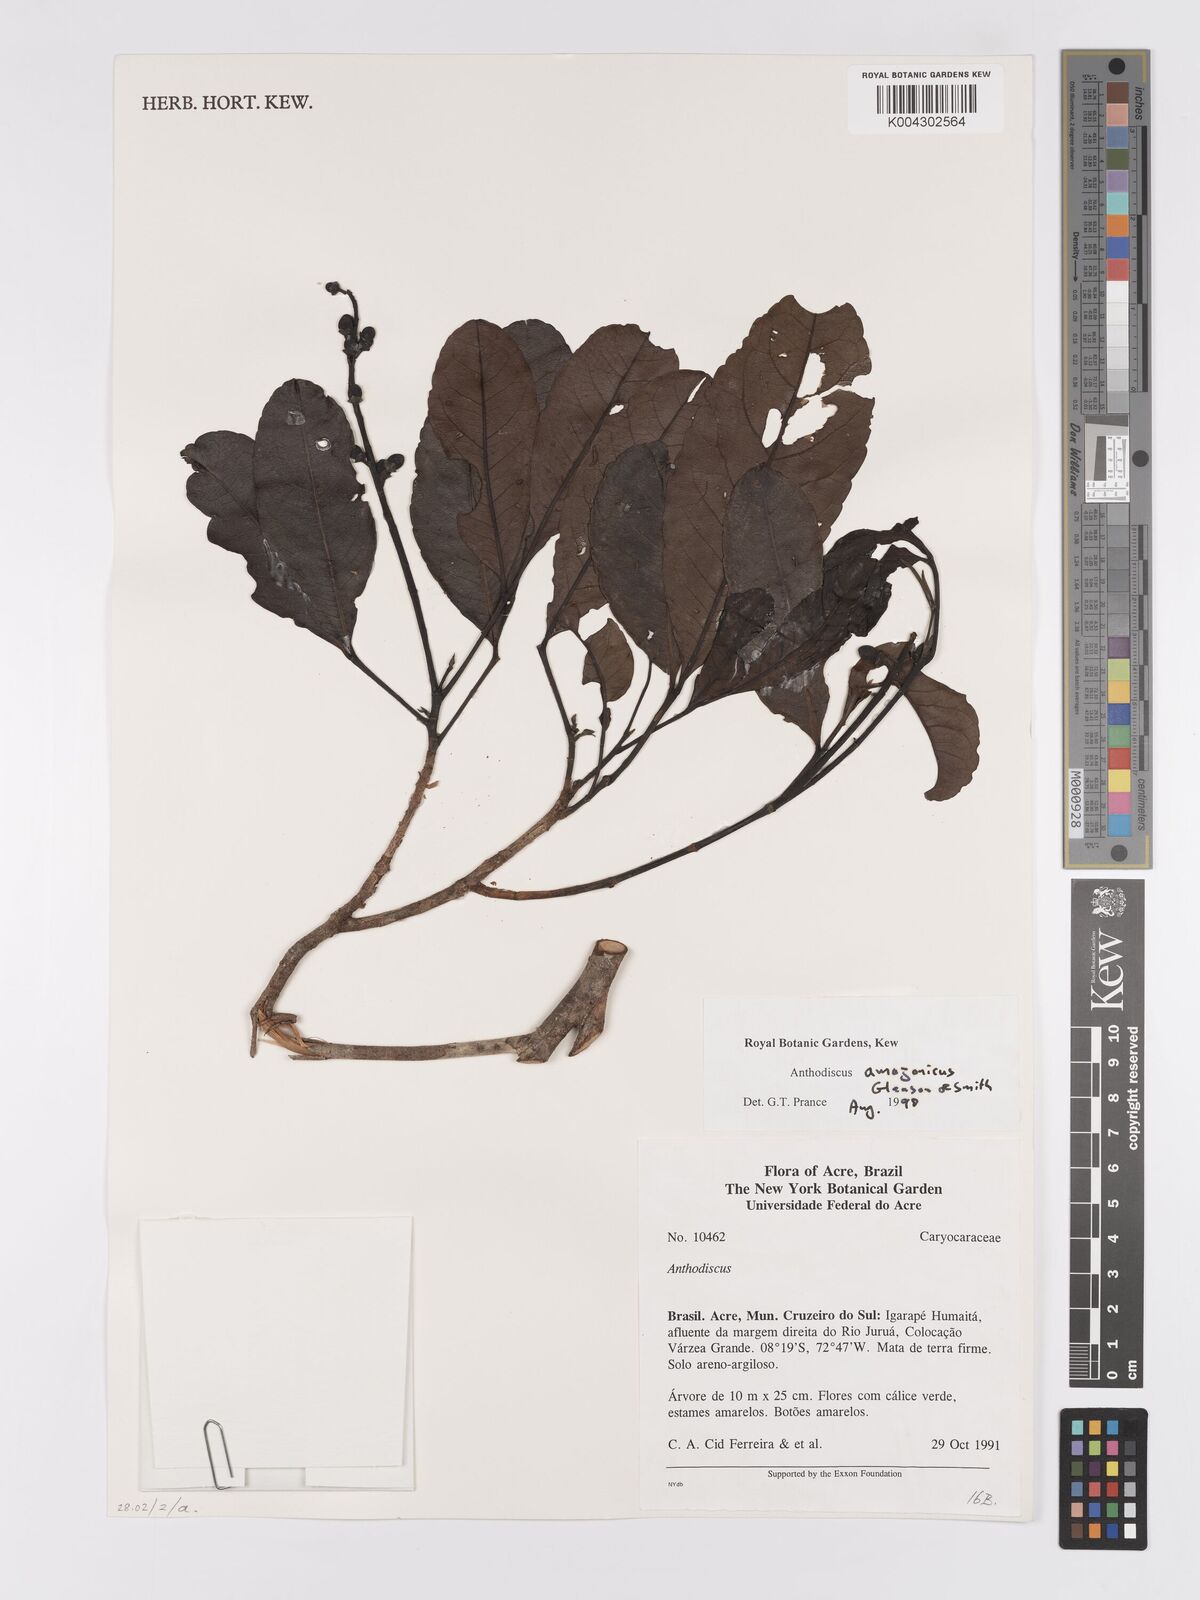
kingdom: Plantae
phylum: Tracheophyta
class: Magnoliopsida
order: Malpighiales
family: Caryocaraceae
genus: Anthodiscus
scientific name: Anthodiscus amazonicus
